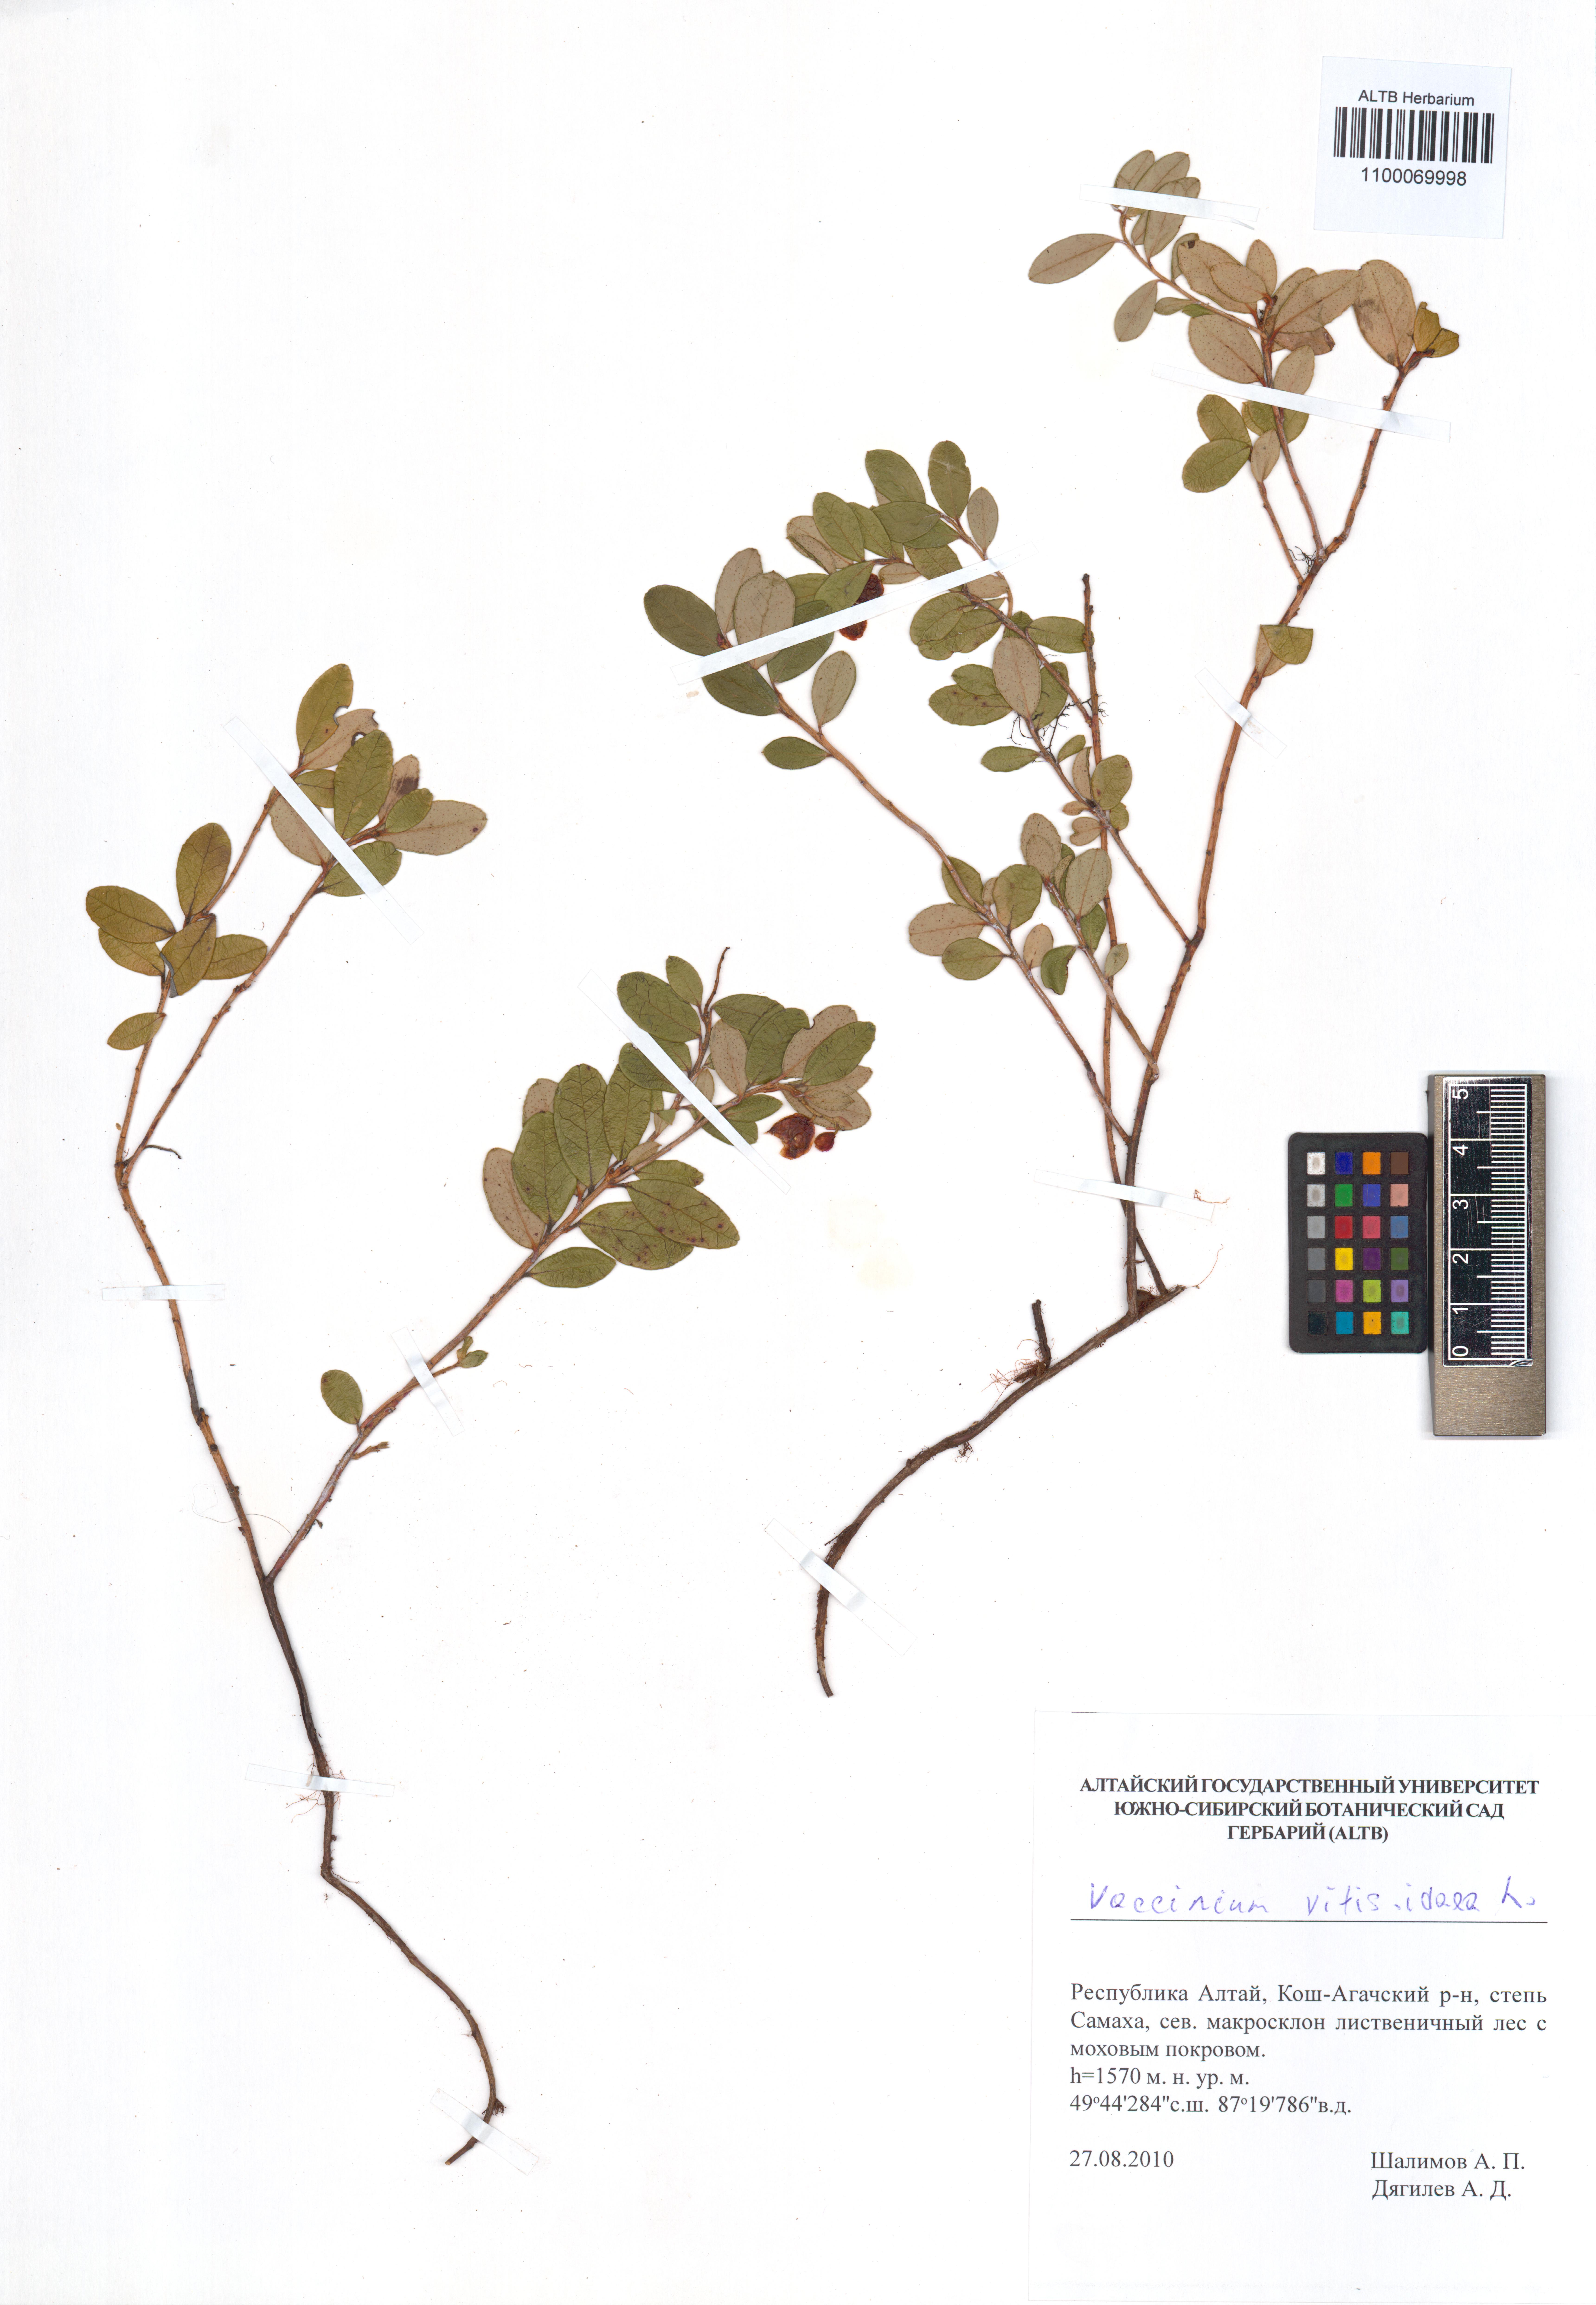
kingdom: Plantae
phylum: Tracheophyta
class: Magnoliopsida
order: Ericales
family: Ericaceae
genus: Vaccinium
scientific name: Vaccinium vitis-idaea
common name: Cowberry
